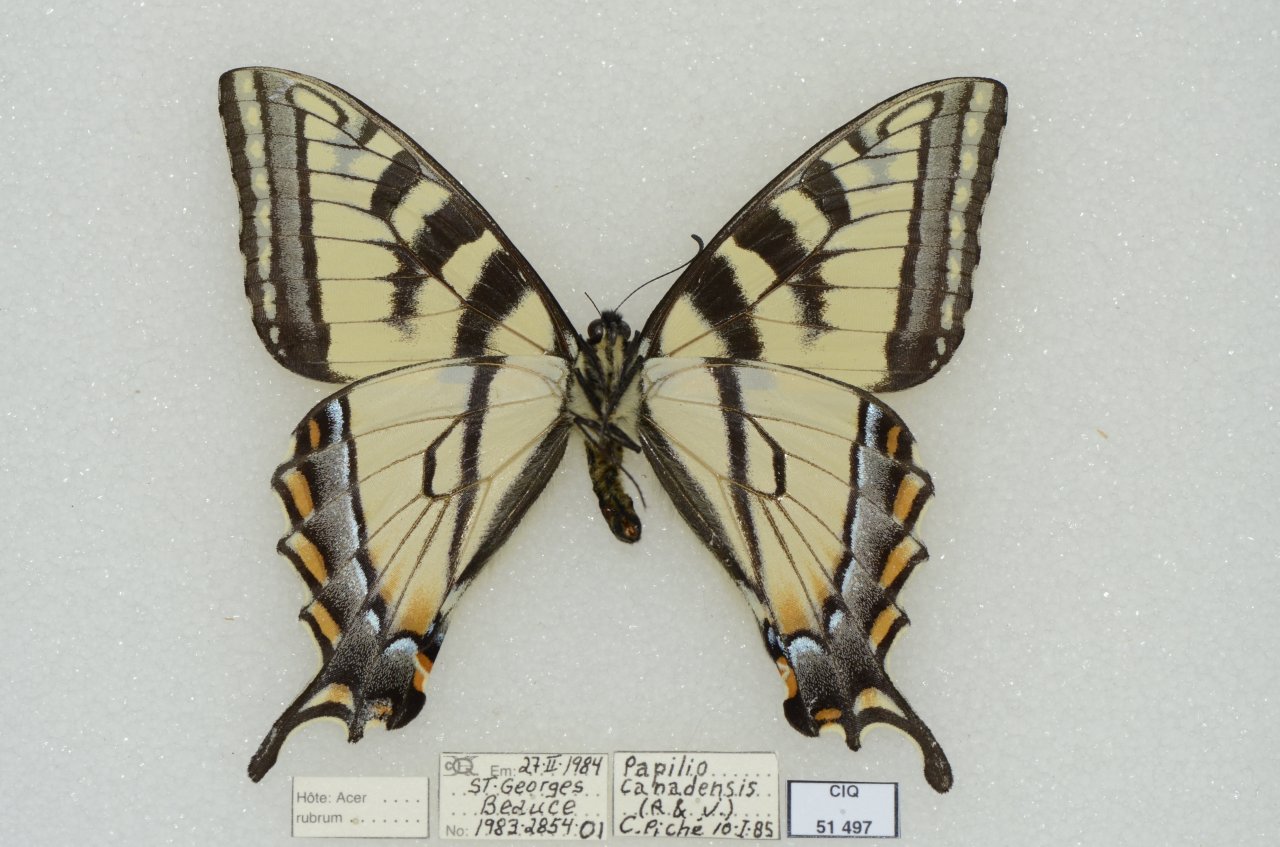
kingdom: Animalia
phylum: Arthropoda
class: Insecta
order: Lepidoptera
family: Papilionidae
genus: Pterourus
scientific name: Pterourus canadensis
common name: Canadian Tiger Swallowtail
